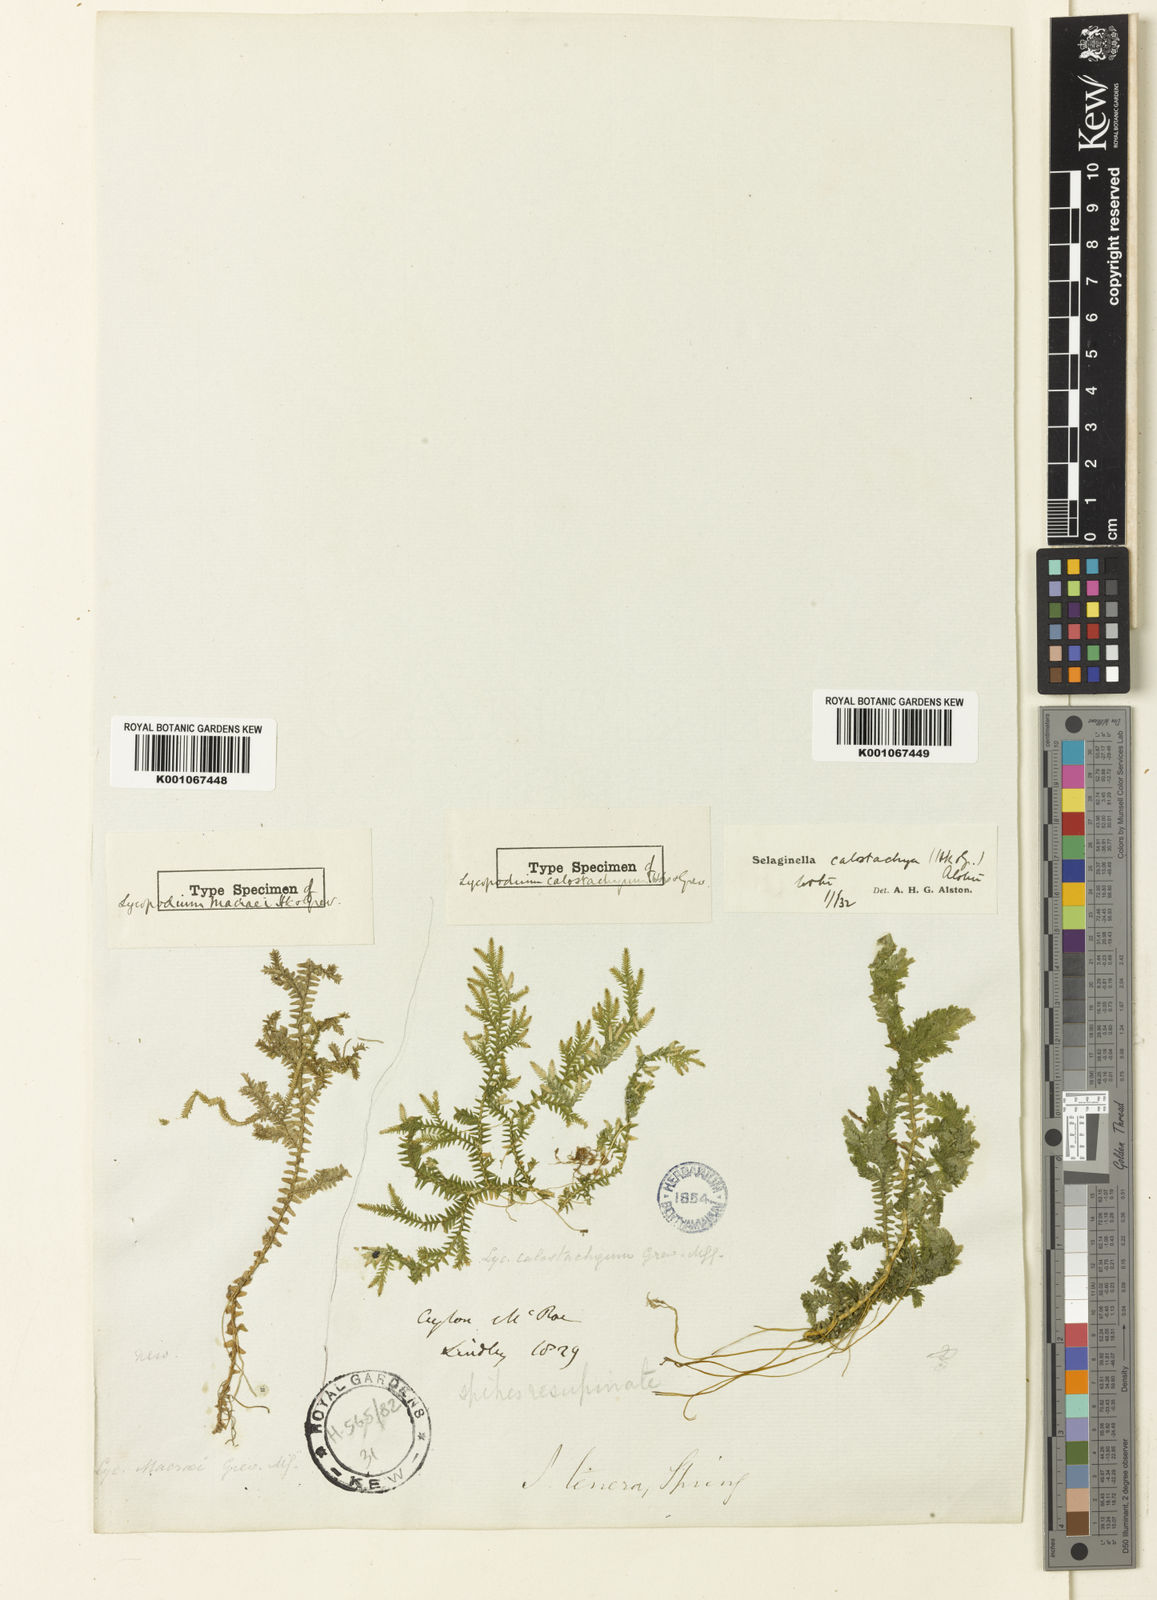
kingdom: Plantae
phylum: Tracheophyta
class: Lycopodiopsida
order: Selaginellales
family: Selaginellaceae
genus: Selaginella
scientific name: Selaginella chrysocaulos
